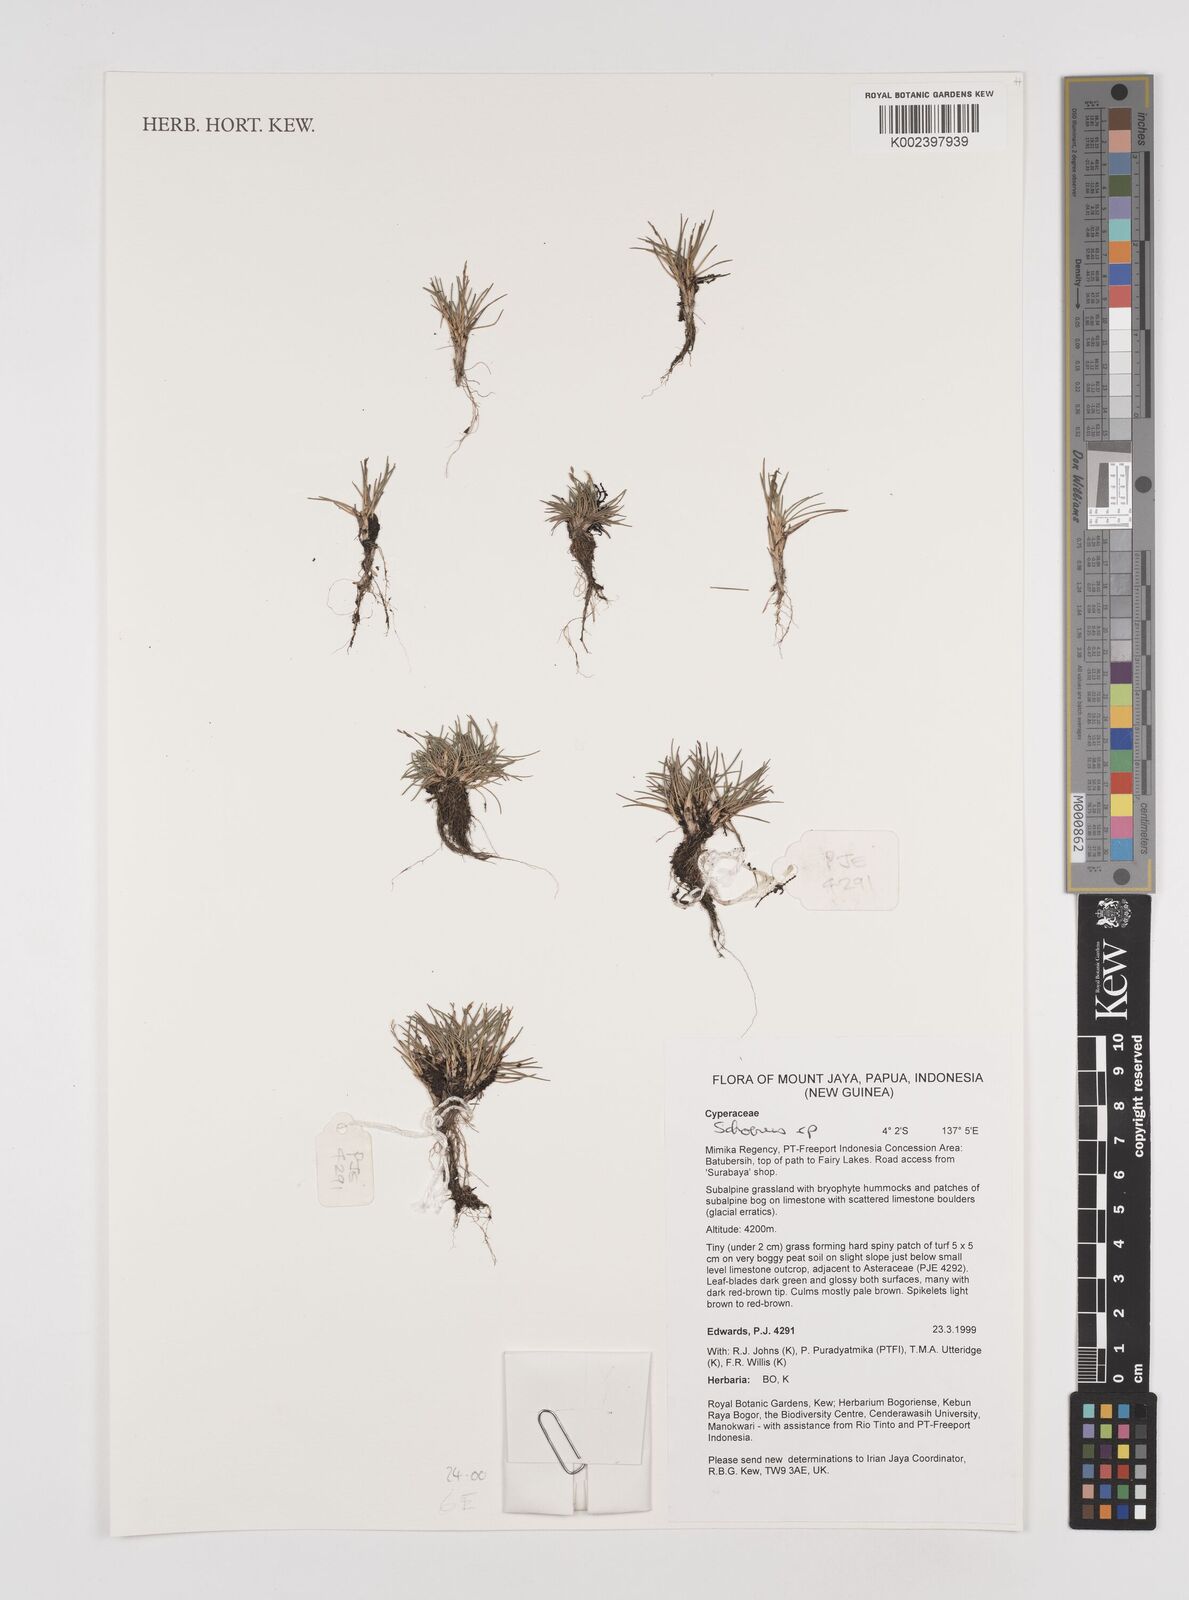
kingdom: Plantae
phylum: Tracheophyta
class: Liliopsida
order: Poales
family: Cyperaceae
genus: Schoenus
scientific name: Schoenus
